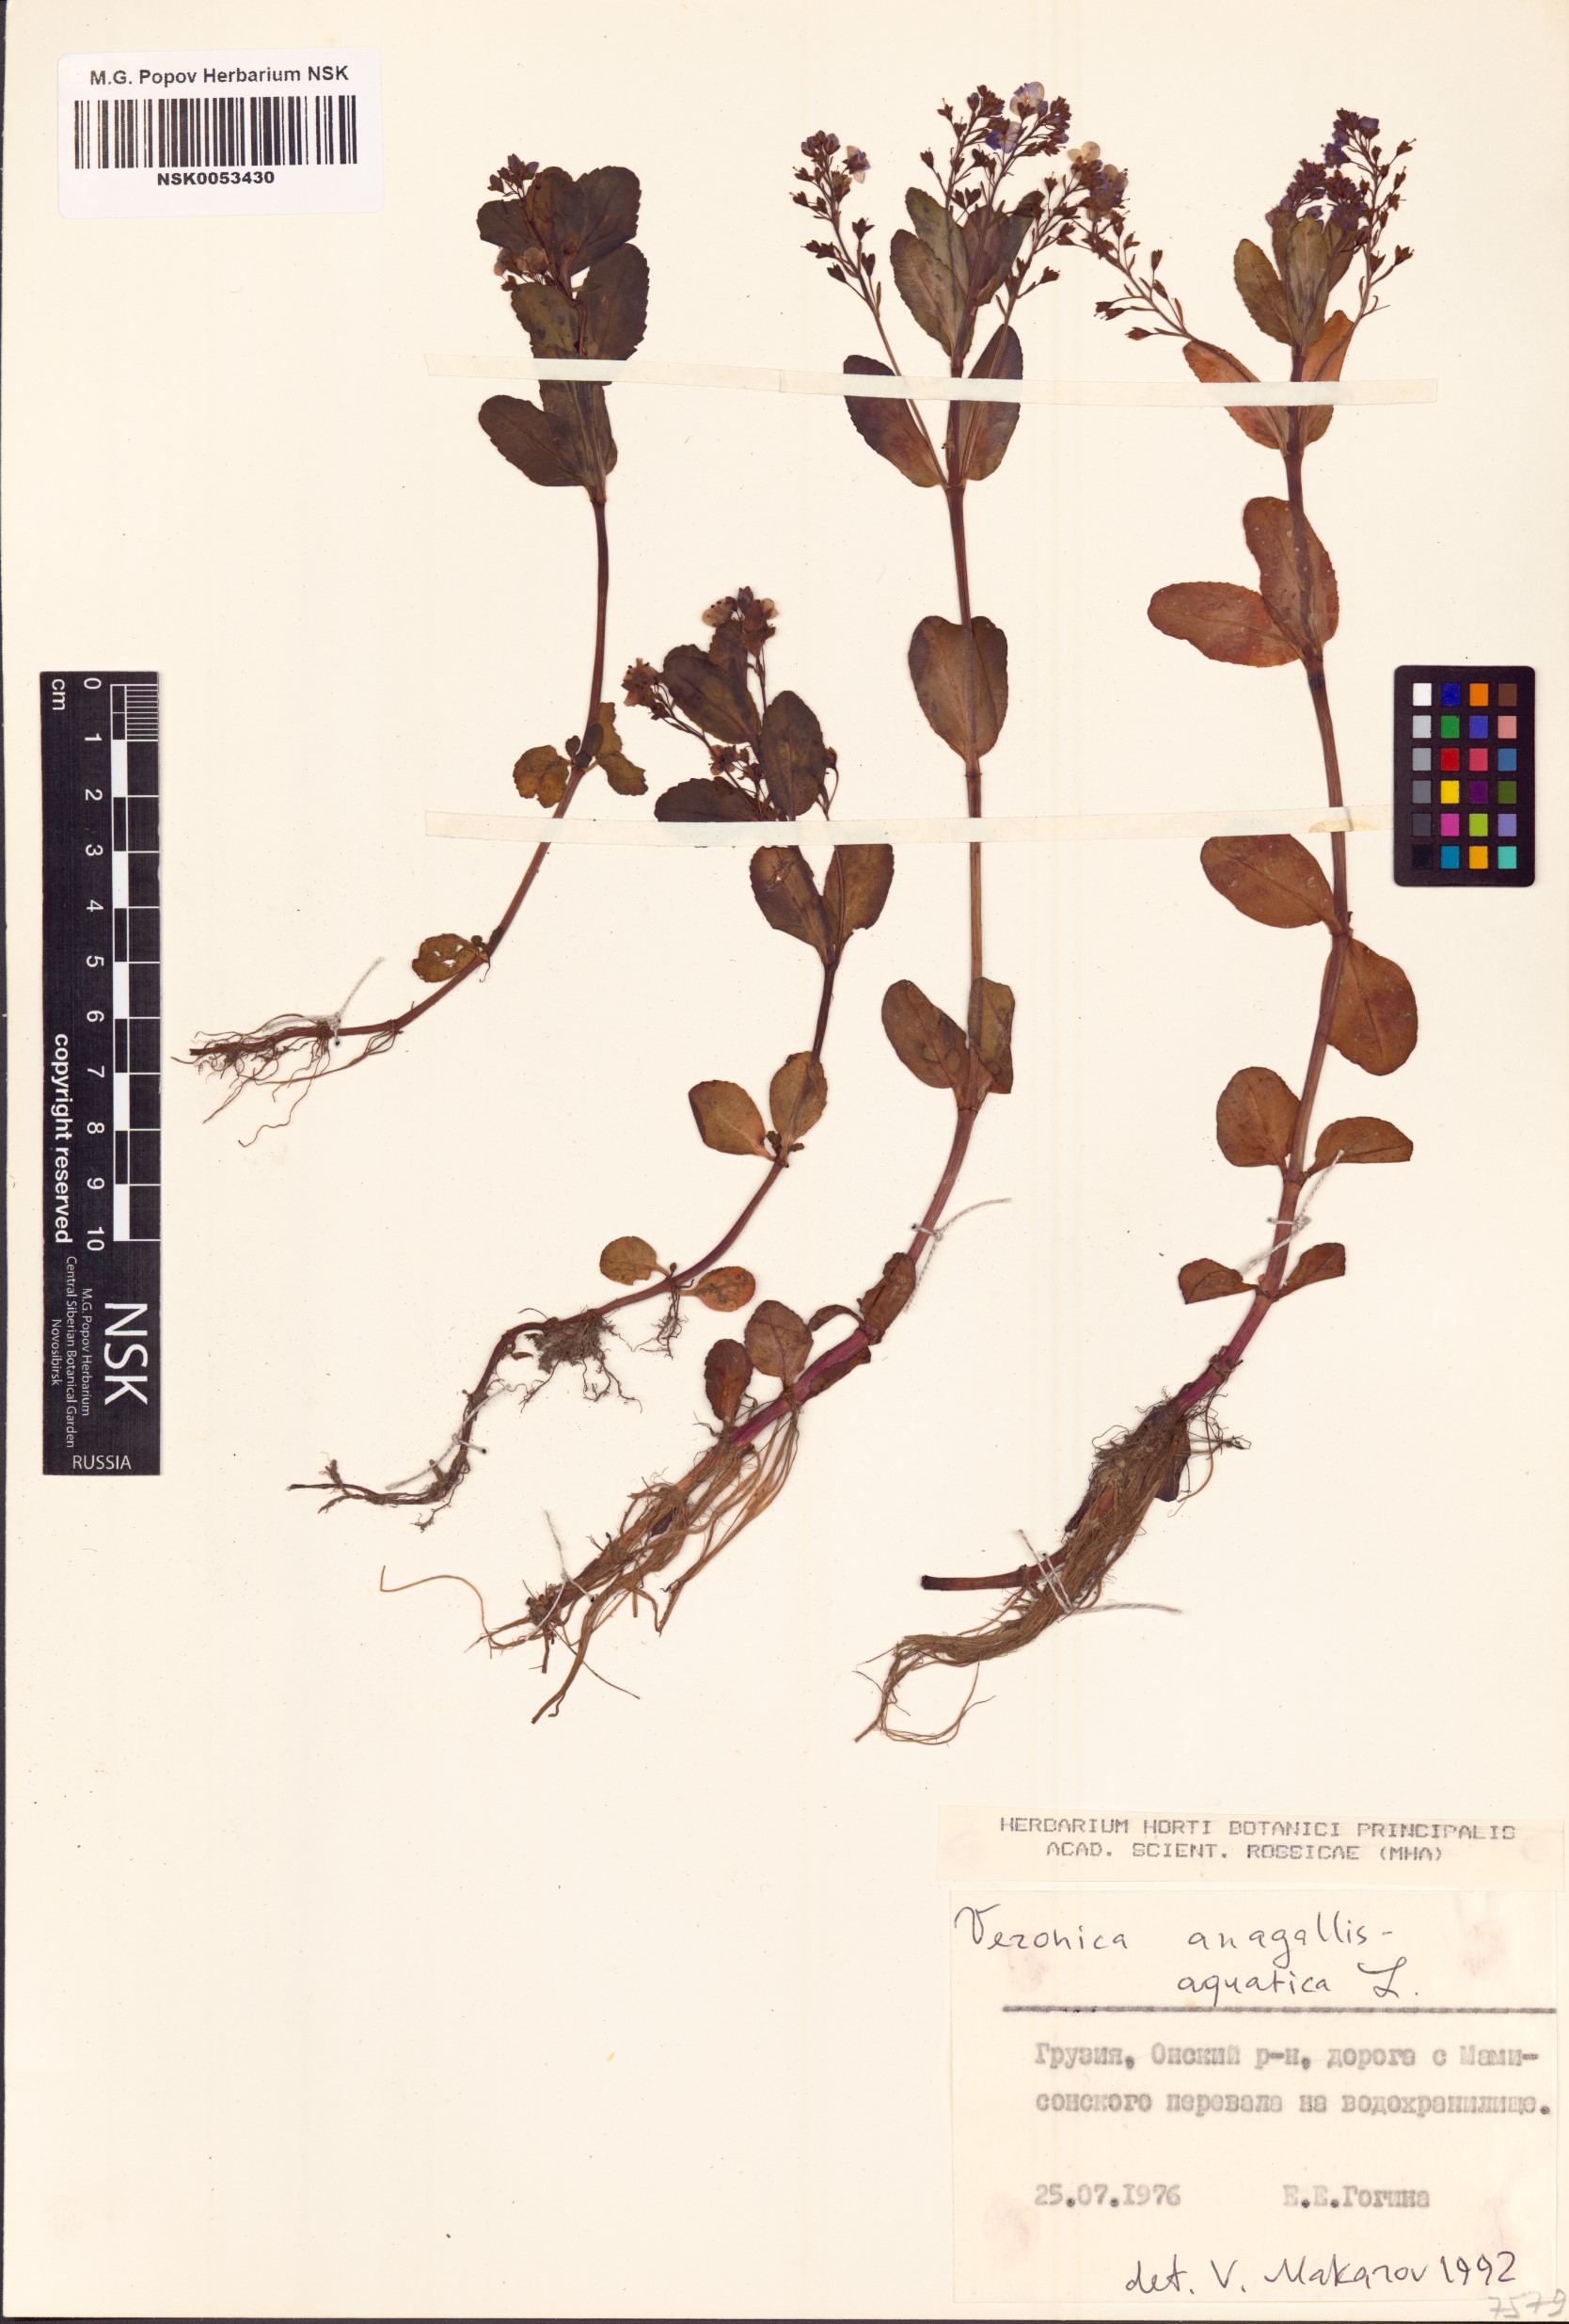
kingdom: Plantae
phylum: Tracheophyta
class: Magnoliopsida
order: Lamiales
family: Plantaginaceae
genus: Veronica
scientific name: Veronica anagallis-aquatica
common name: Water speedwell
